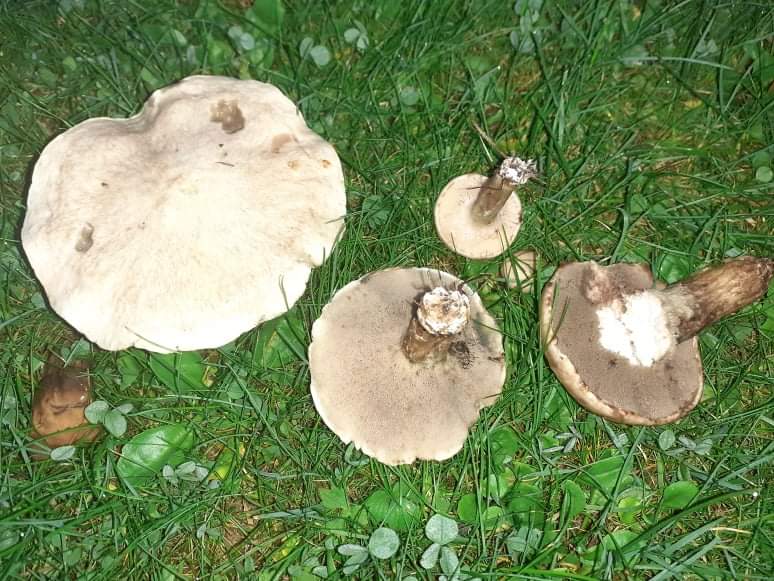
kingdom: Fungi
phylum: Basidiomycota
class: Agaricomycetes
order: Boletales
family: Suillaceae
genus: Suillus
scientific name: Suillus viscidus
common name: olivengrå slimrørhat
